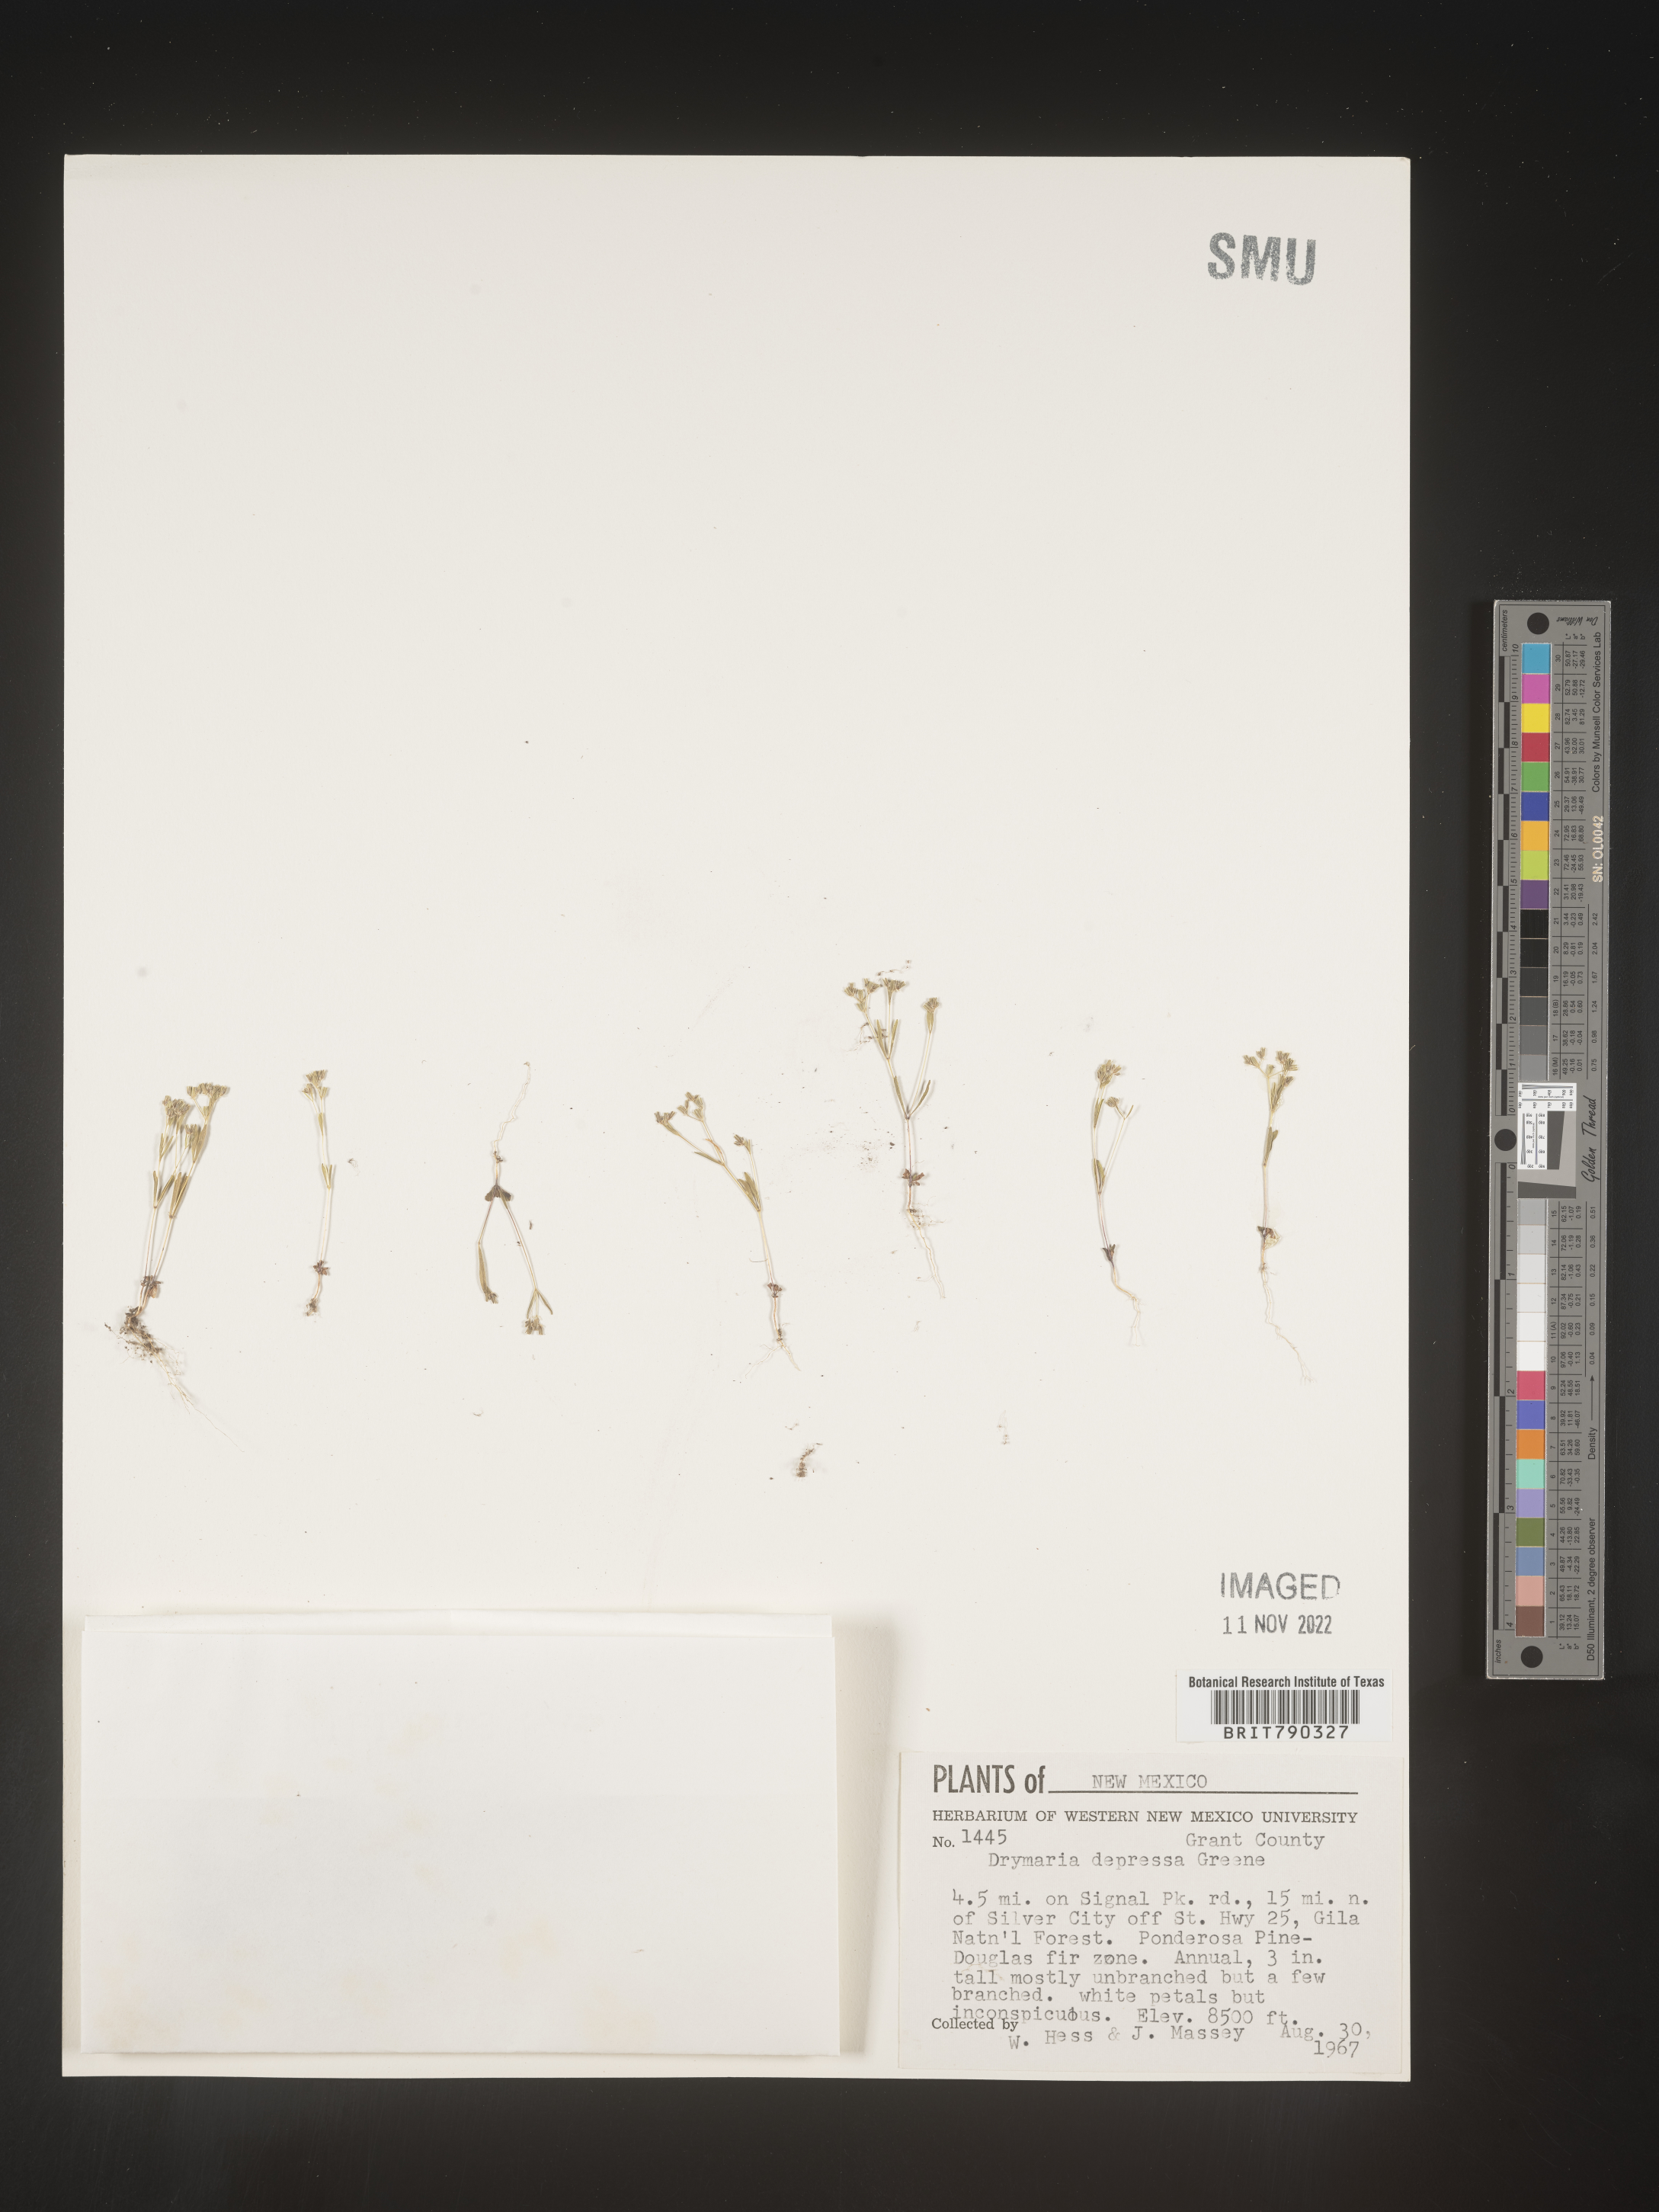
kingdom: Plantae
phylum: Tracheophyta
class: Magnoliopsida
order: Caryophyllales
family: Caryophyllaceae
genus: Drymaria
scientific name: Drymaria
